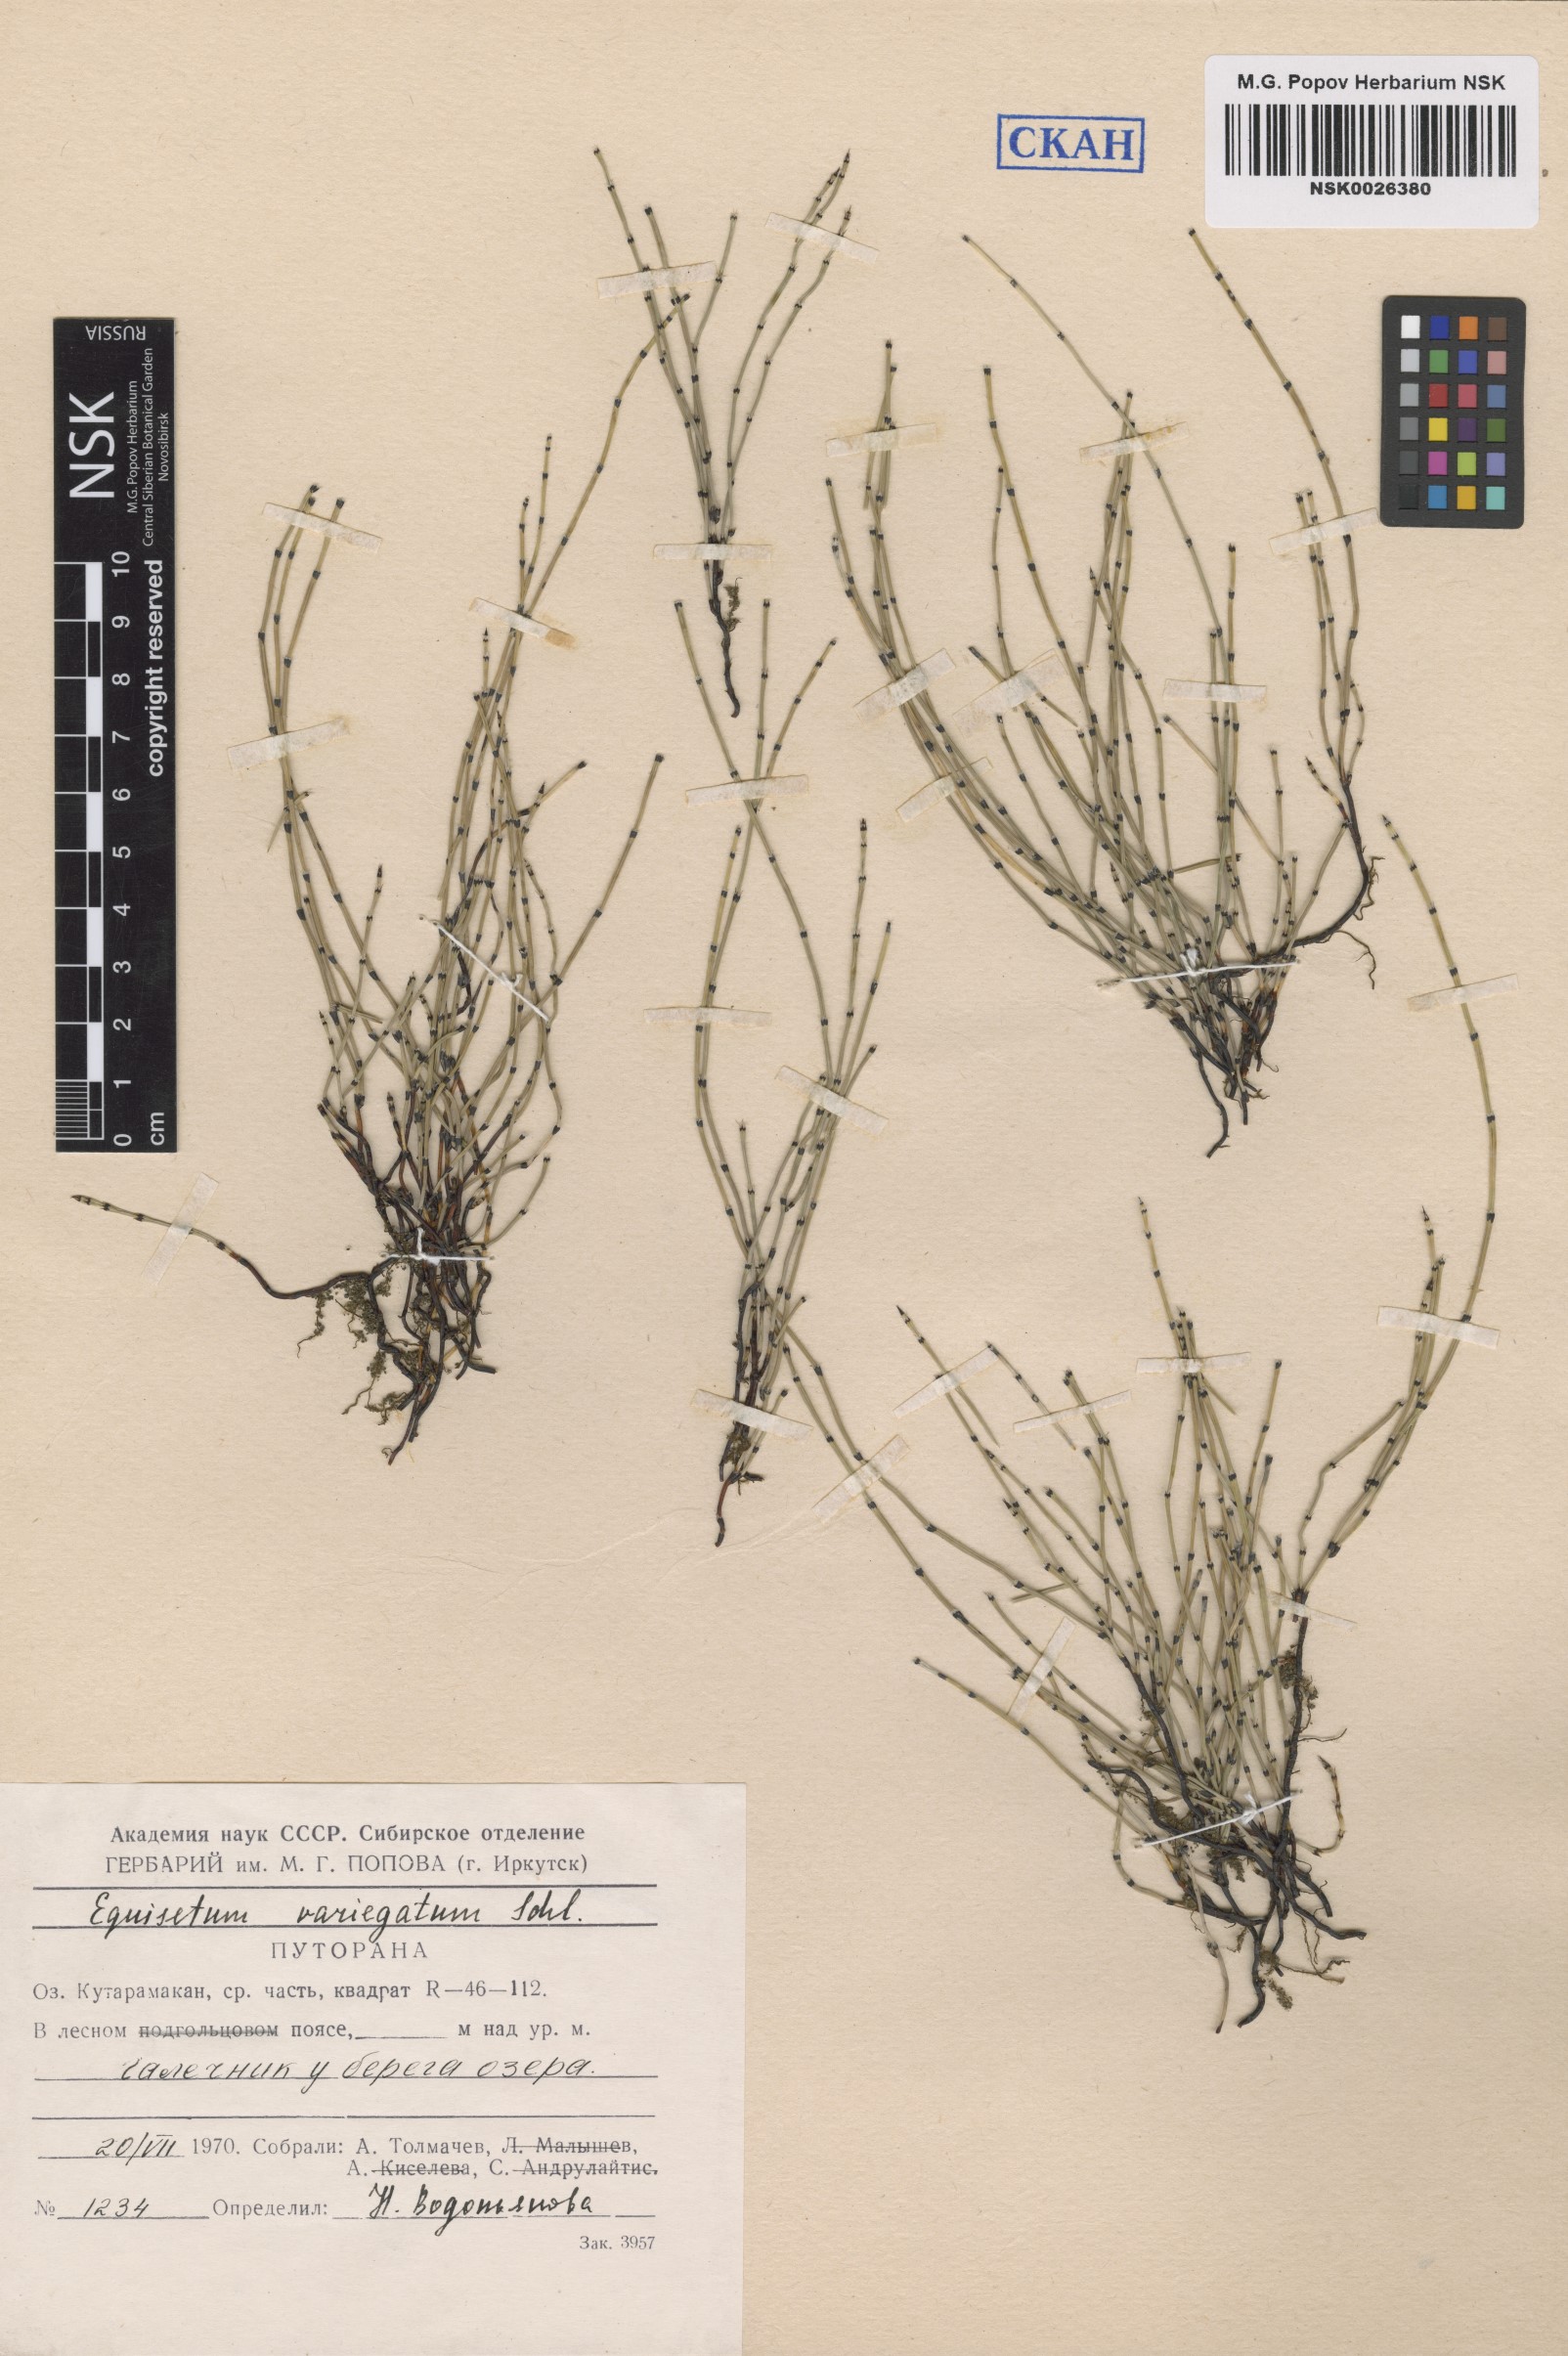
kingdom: Plantae
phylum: Tracheophyta
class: Polypodiopsida
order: Equisetales
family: Equisetaceae
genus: Equisetum
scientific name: Equisetum variegatum
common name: Variegated horsetail
